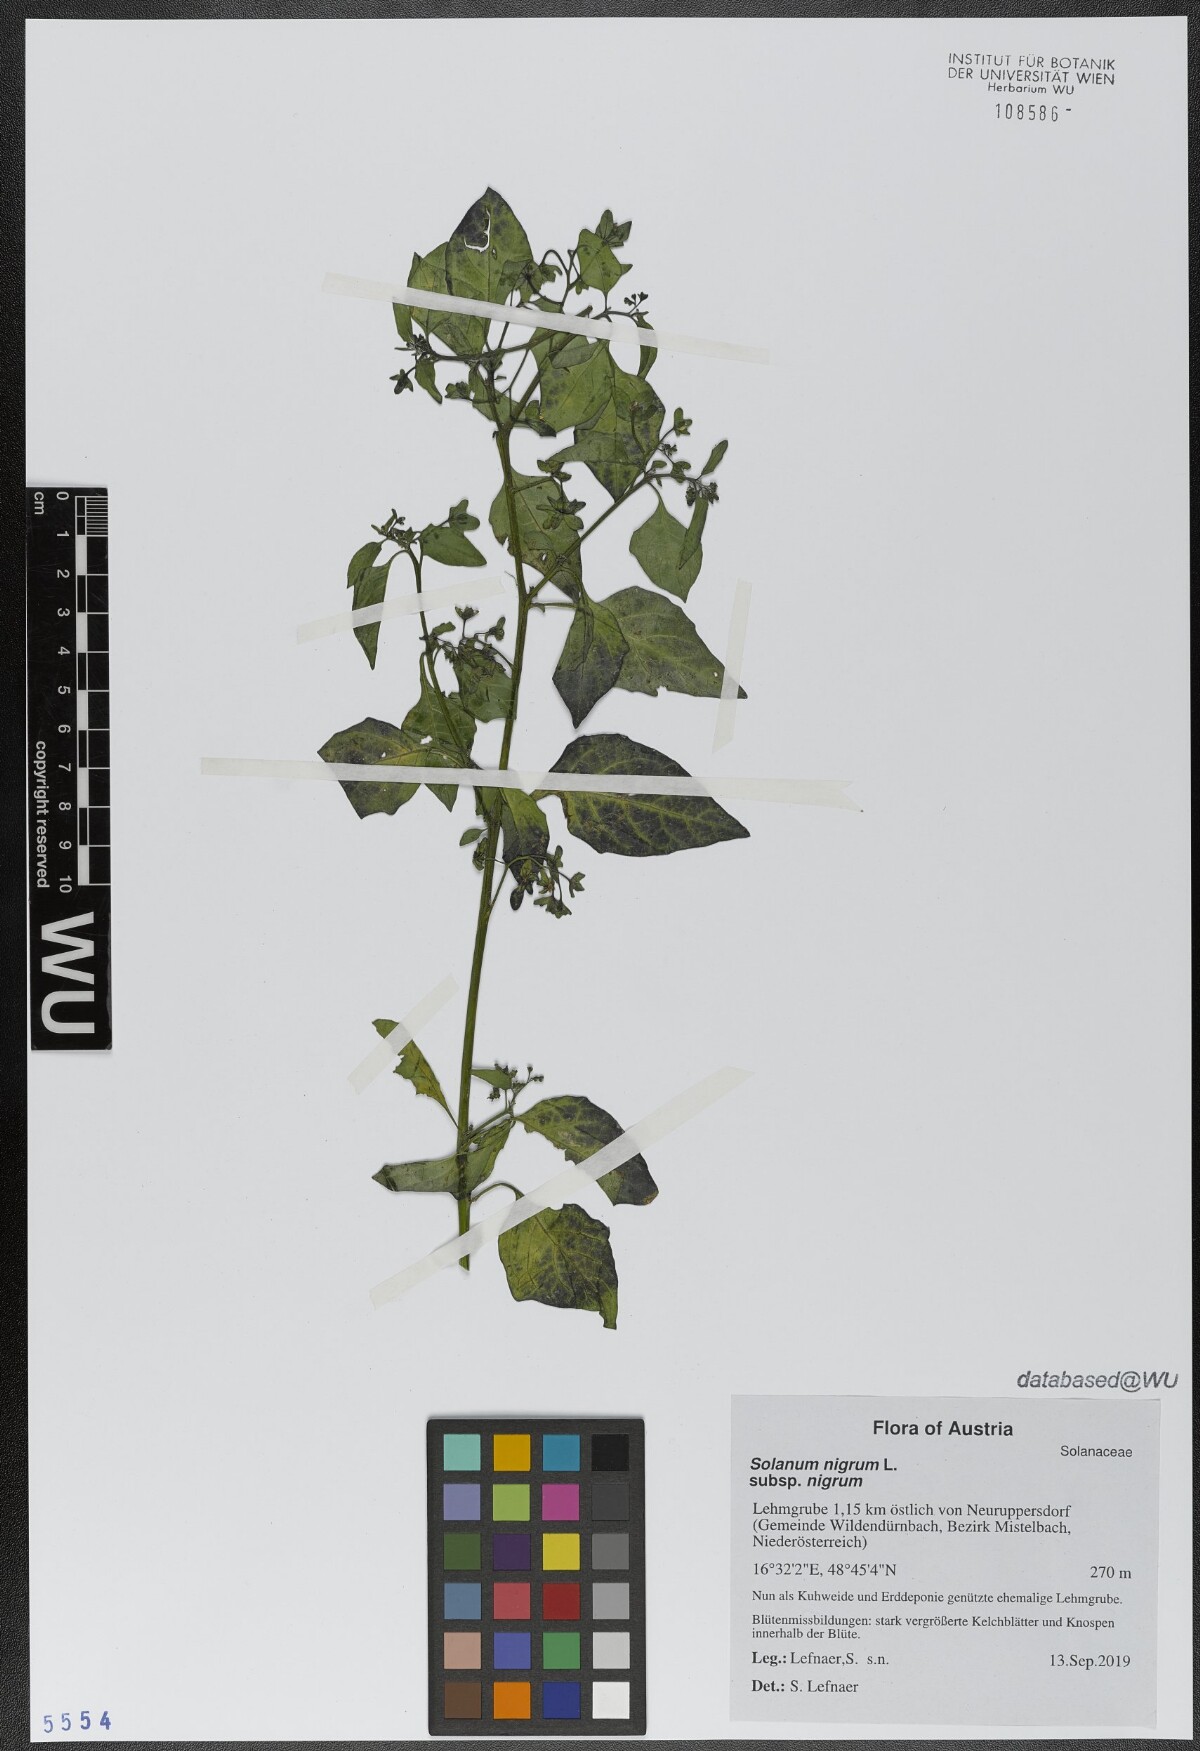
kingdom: Plantae
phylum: Tracheophyta
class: Magnoliopsida
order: Solanales
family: Solanaceae
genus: Solanum
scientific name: Solanum nigrum
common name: Black nightshade
